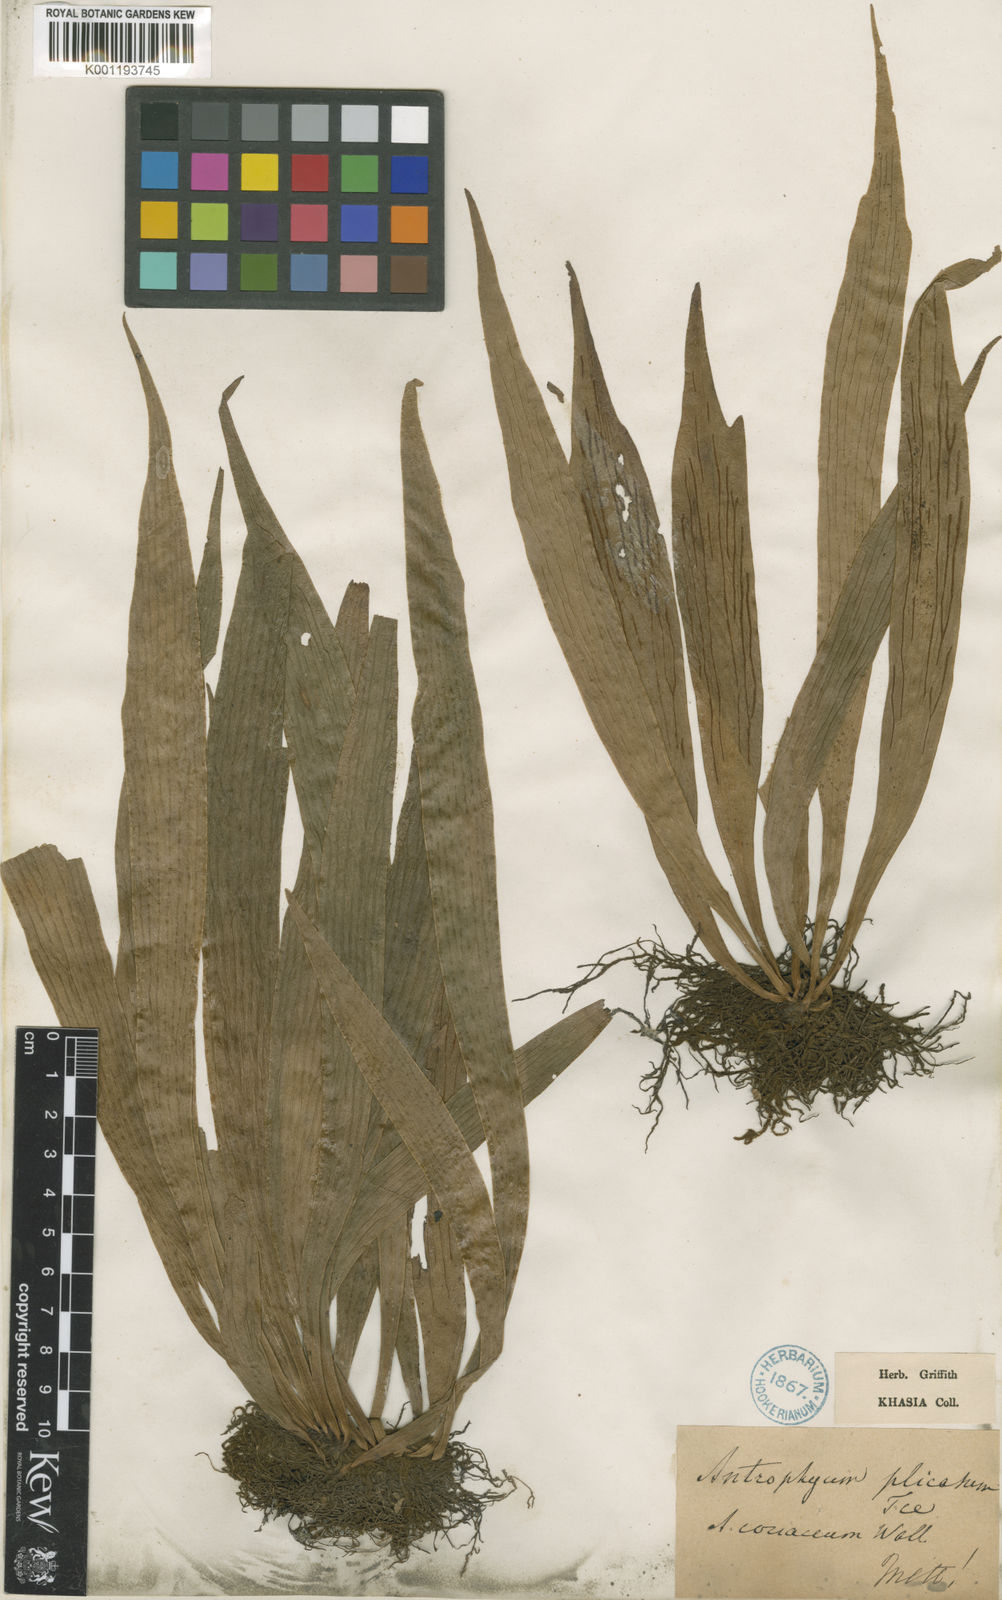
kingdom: Plantae
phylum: Tracheophyta
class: Polypodiopsida
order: Polypodiales
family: Pteridaceae
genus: Antrophyum
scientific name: Antrophyum reticulatum
